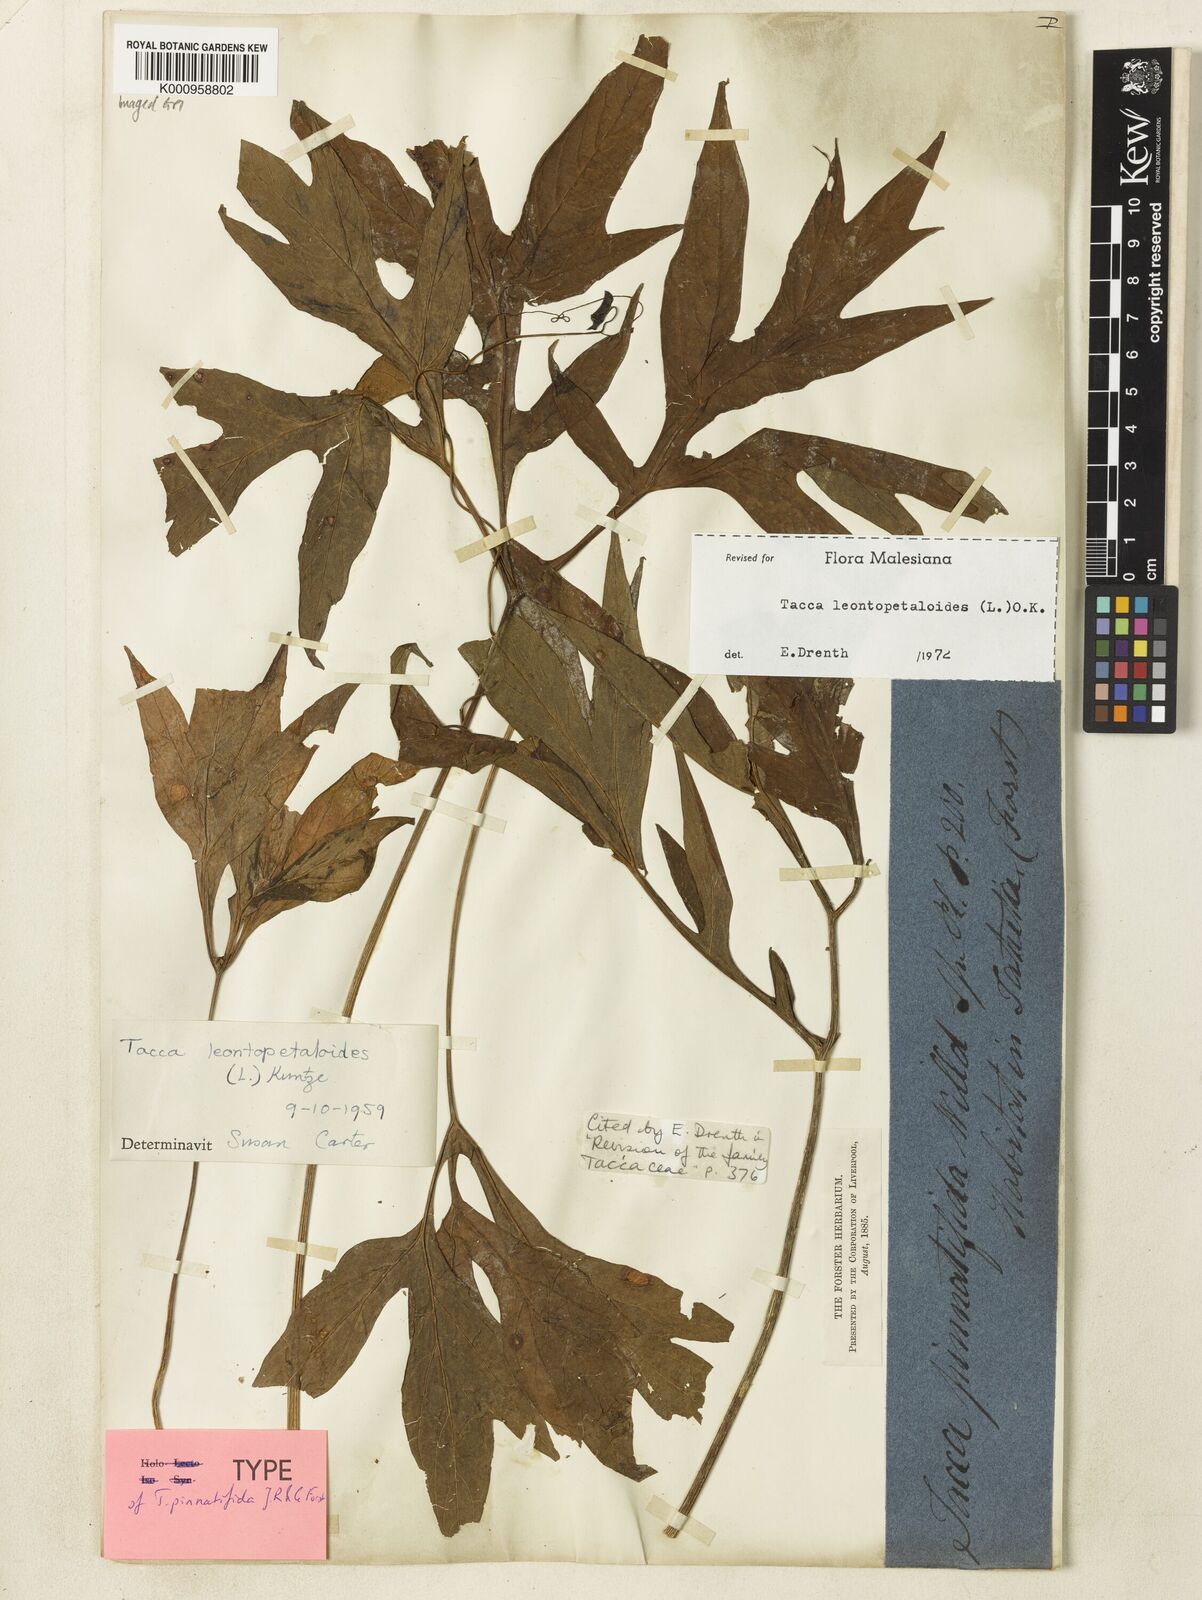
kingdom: Plantae
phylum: Tracheophyta
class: Liliopsida
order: Dioscoreales
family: Dioscoreaceae
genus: Tacca
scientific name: Tacca leontopetaloides
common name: Arrowroot
